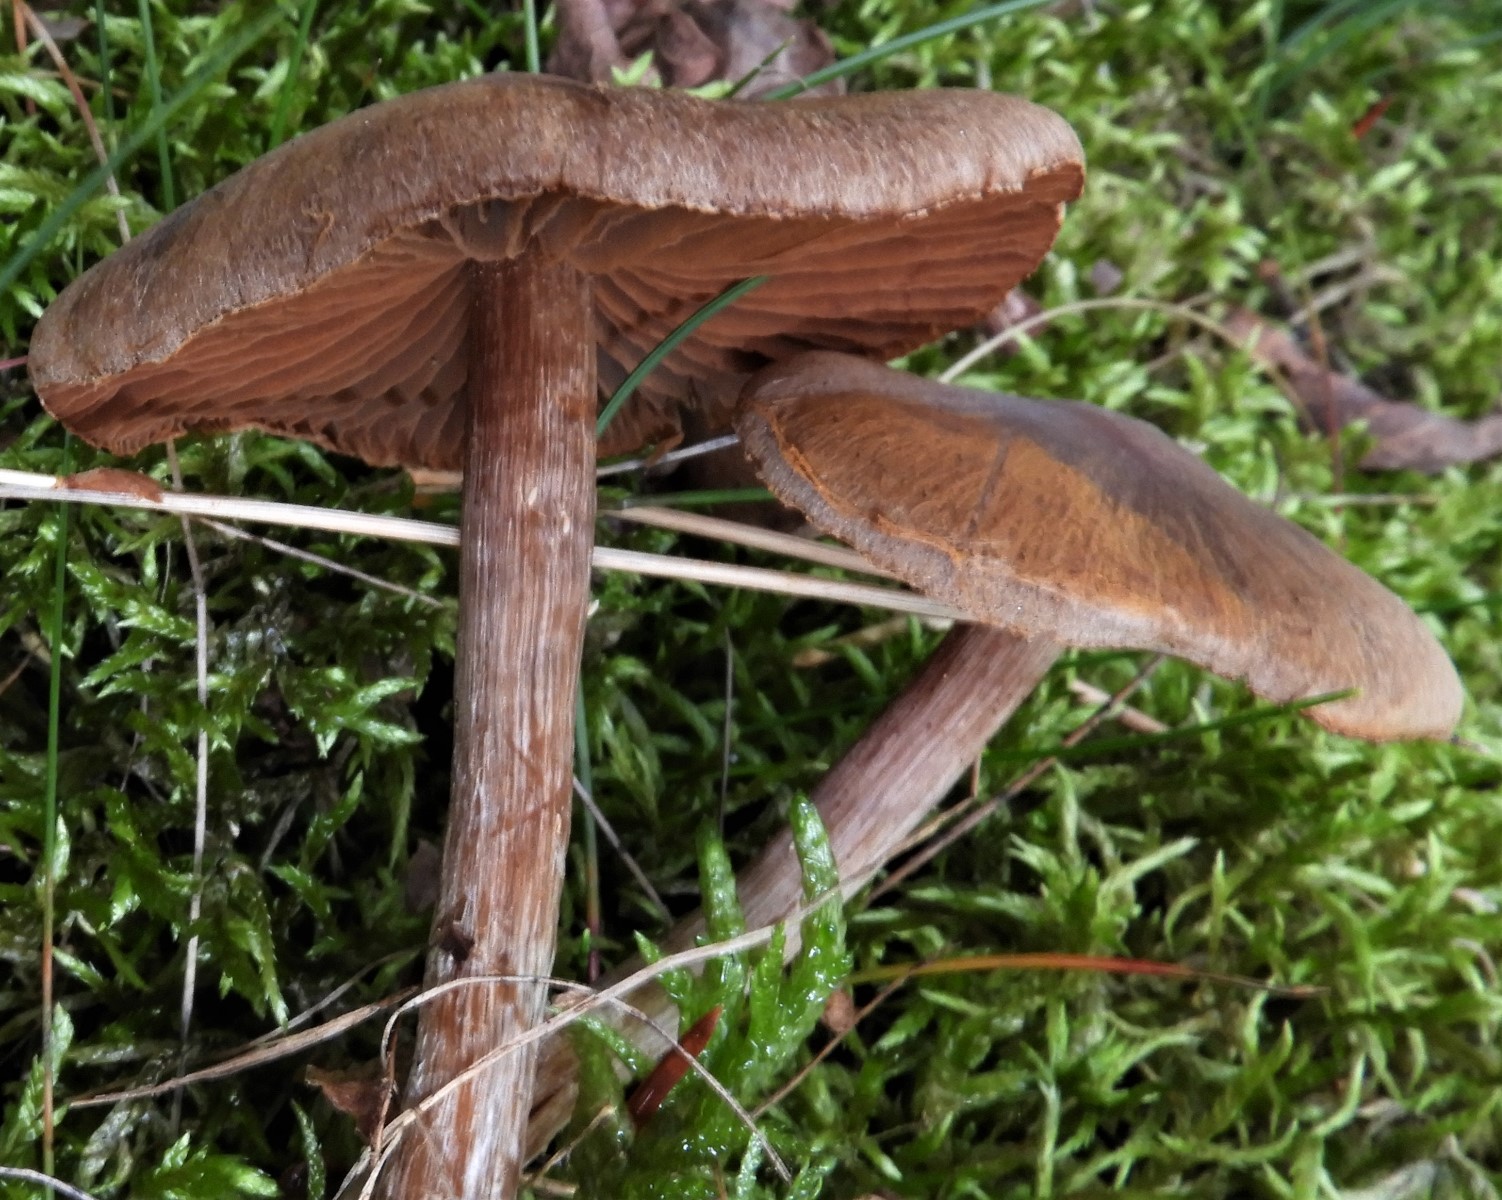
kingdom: Fungi
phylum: Basidiomycota
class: Agaricomycetes
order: Agaricales
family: Cortinariaceae
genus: Cortinarius
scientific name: Cortinarius
